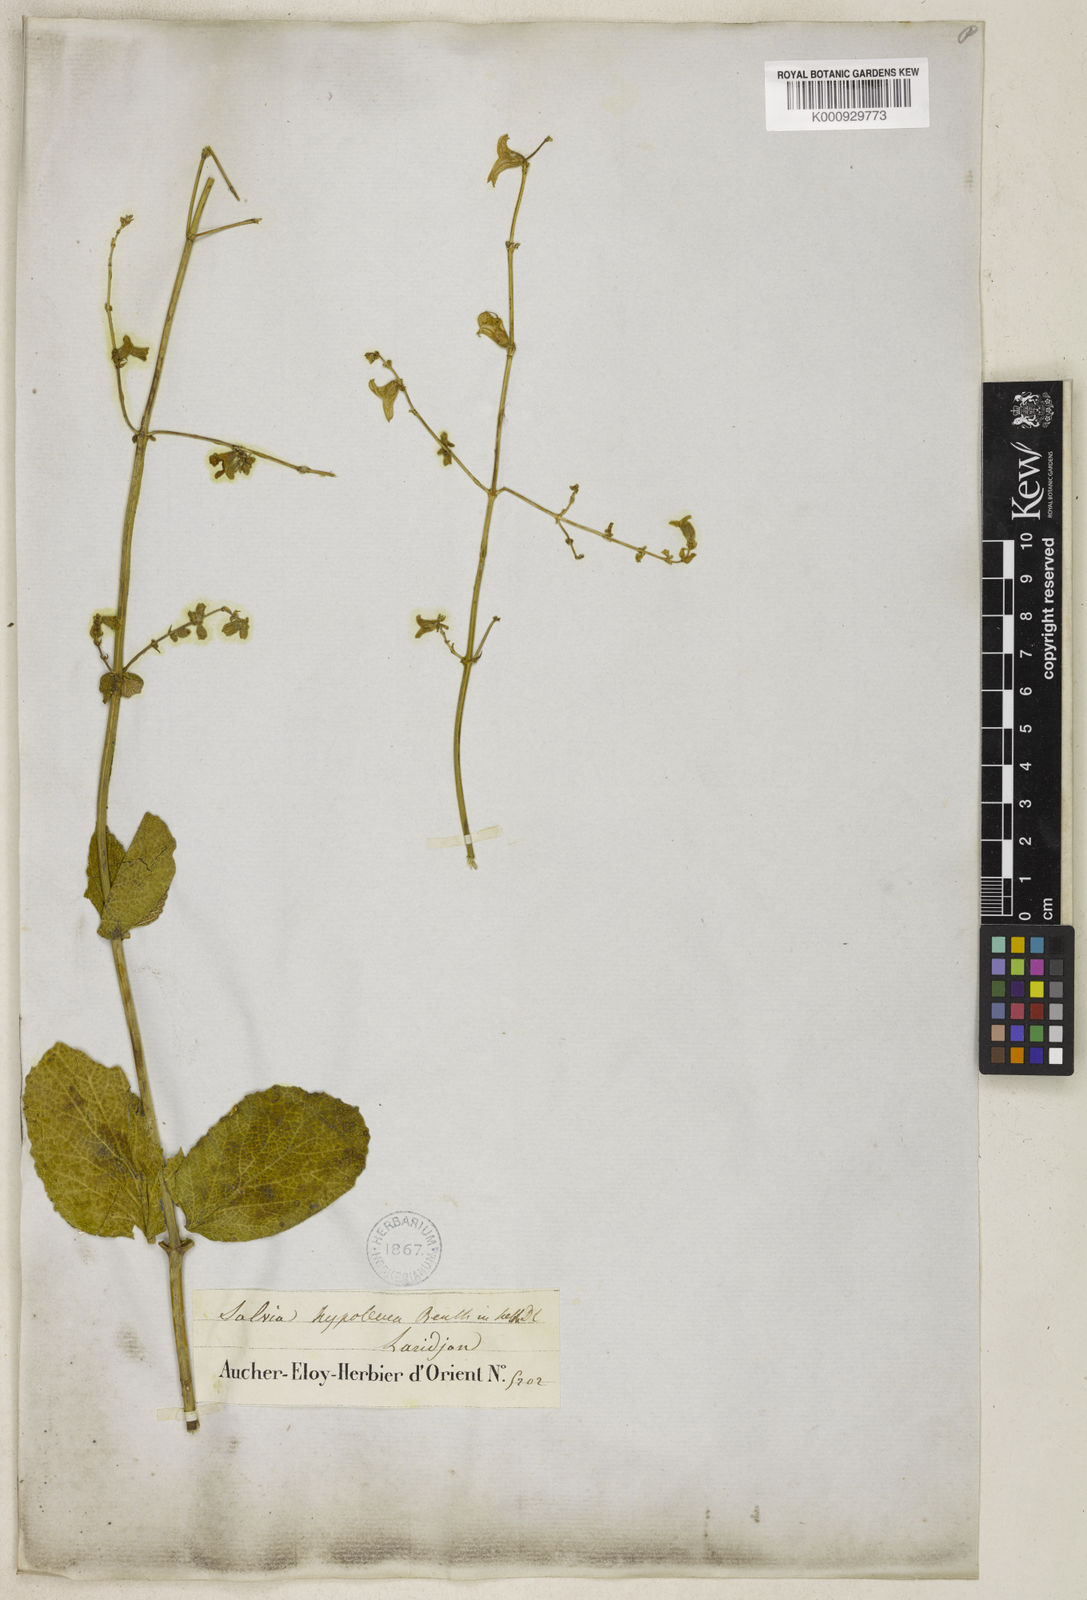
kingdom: Plantae
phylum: Tracheophyta
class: Magnoliopsida
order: Lamiales
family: Lamiaceae
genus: Salvia
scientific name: Salvia hypoleuca
